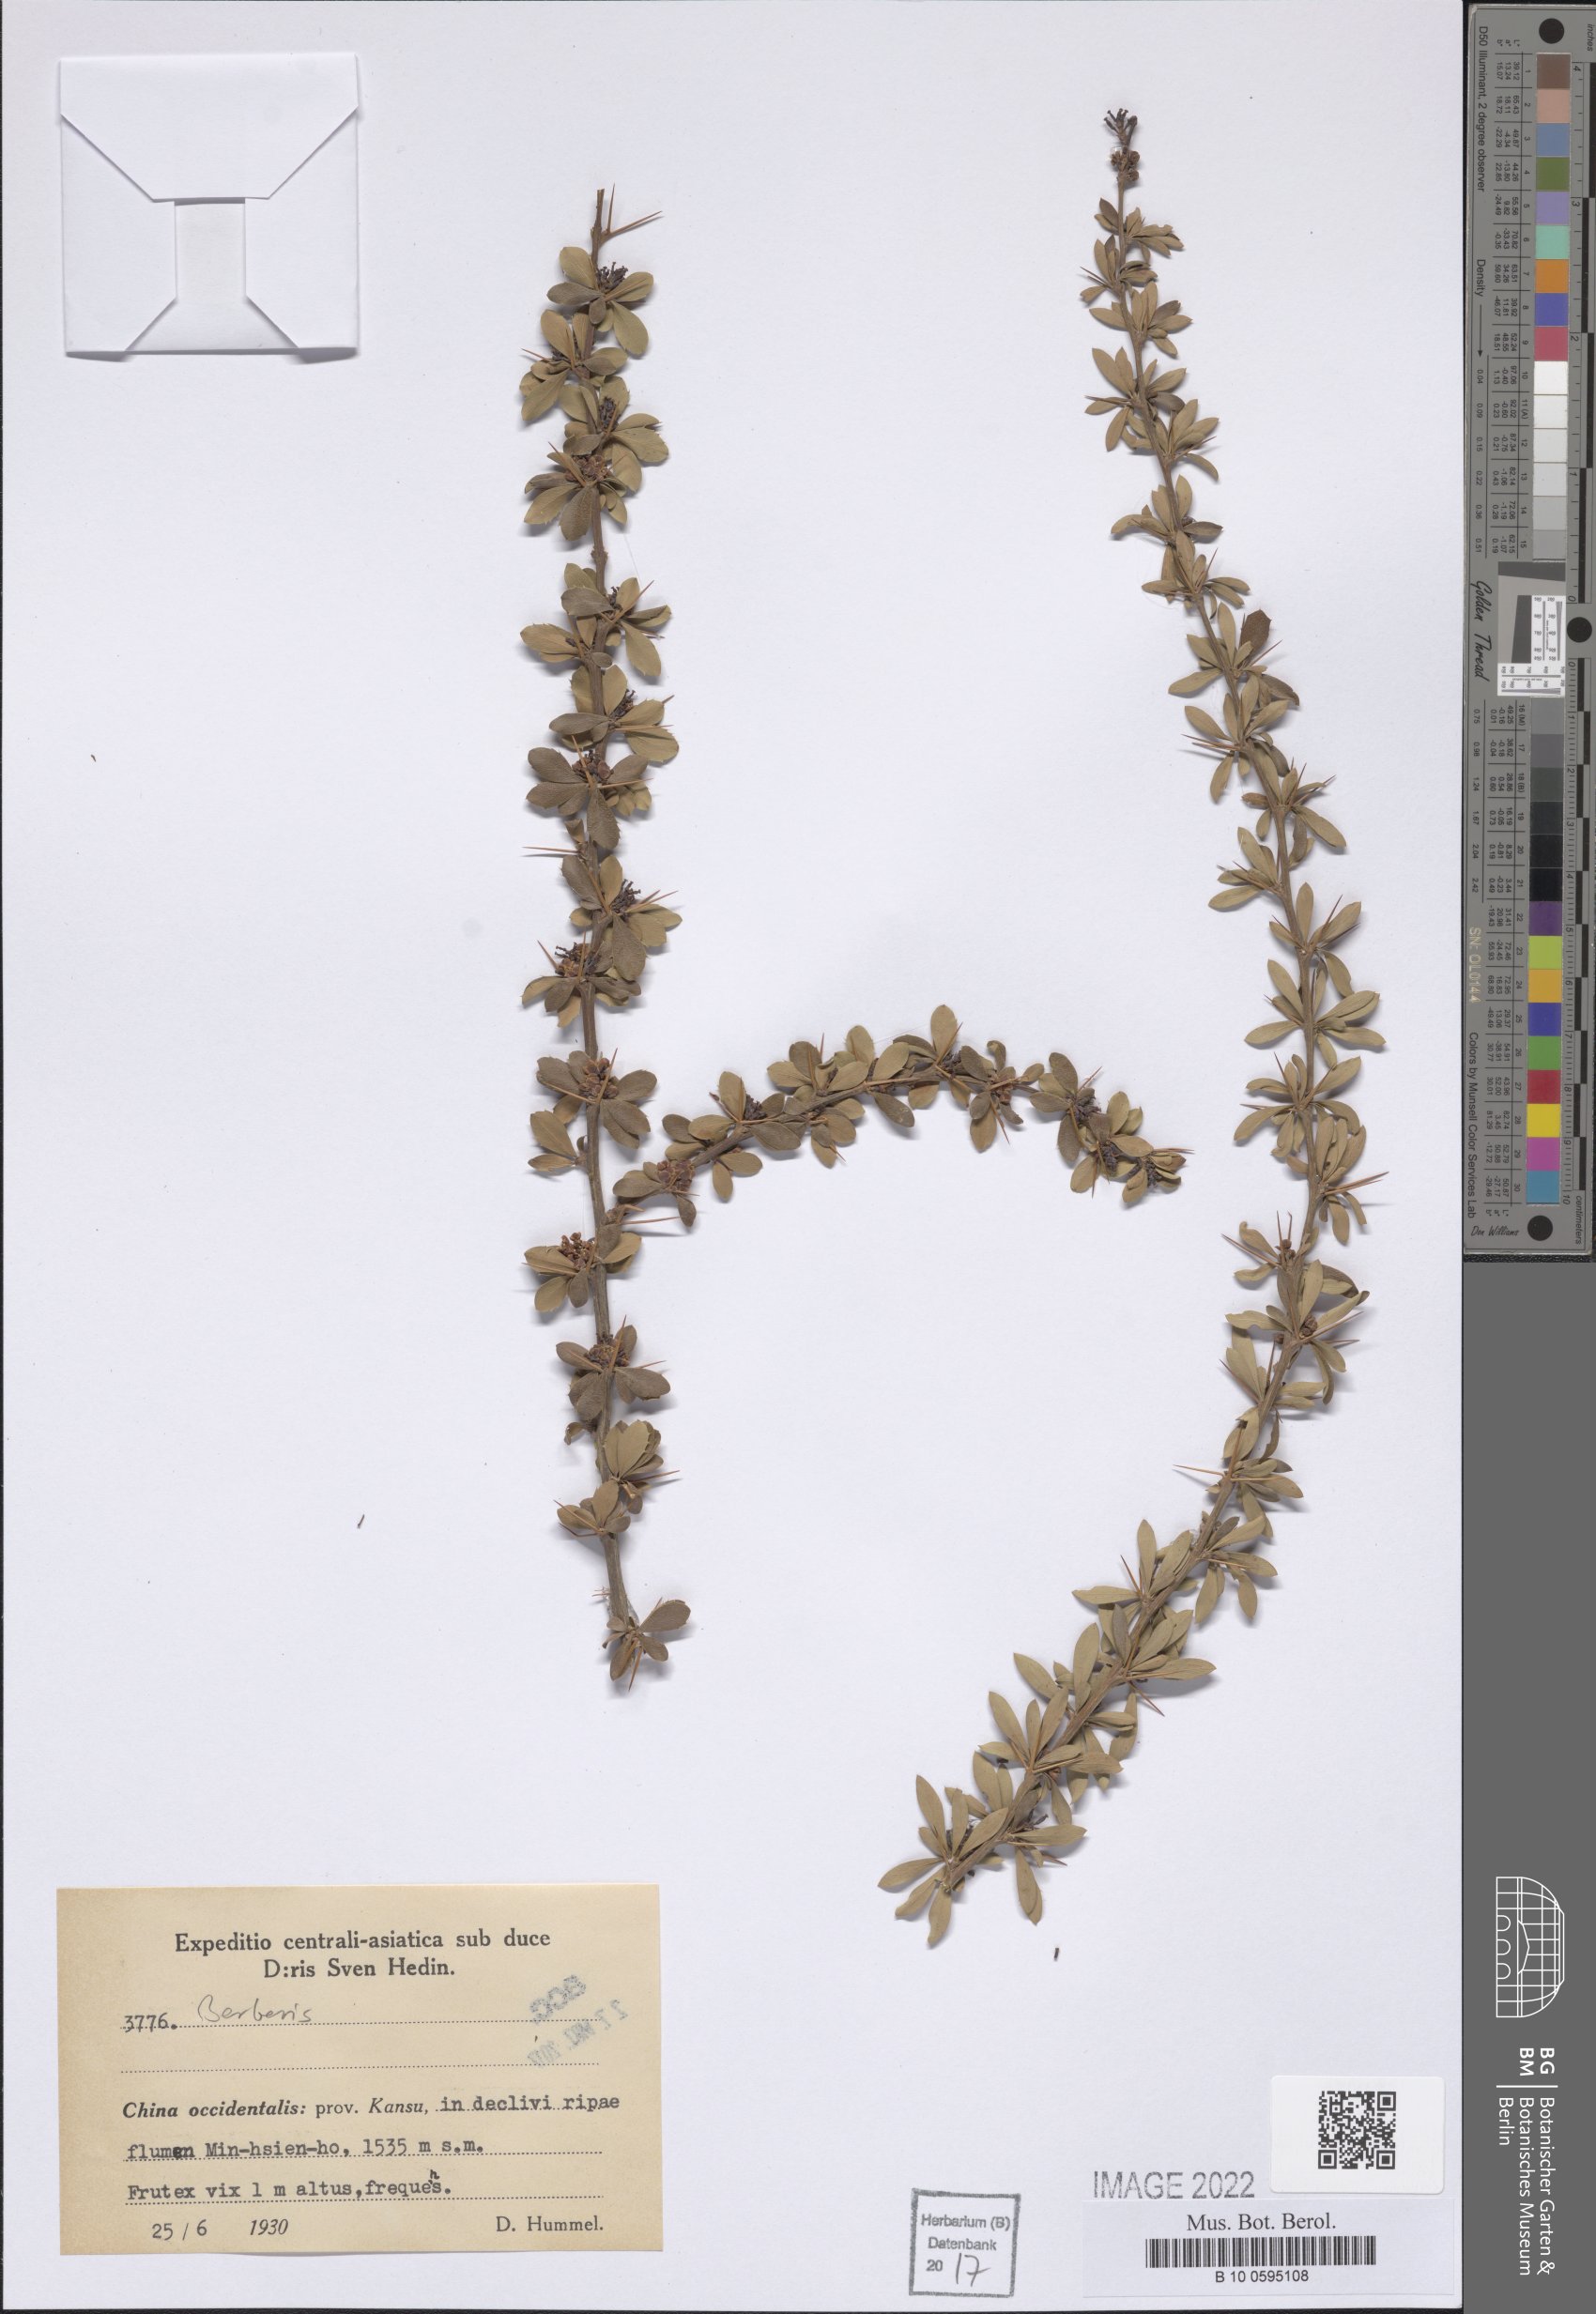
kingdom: Plantae
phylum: Tracheophyta
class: Magnoliopsida
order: Ranunculales
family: Berberidaceae
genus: Berberis
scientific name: Berberis
